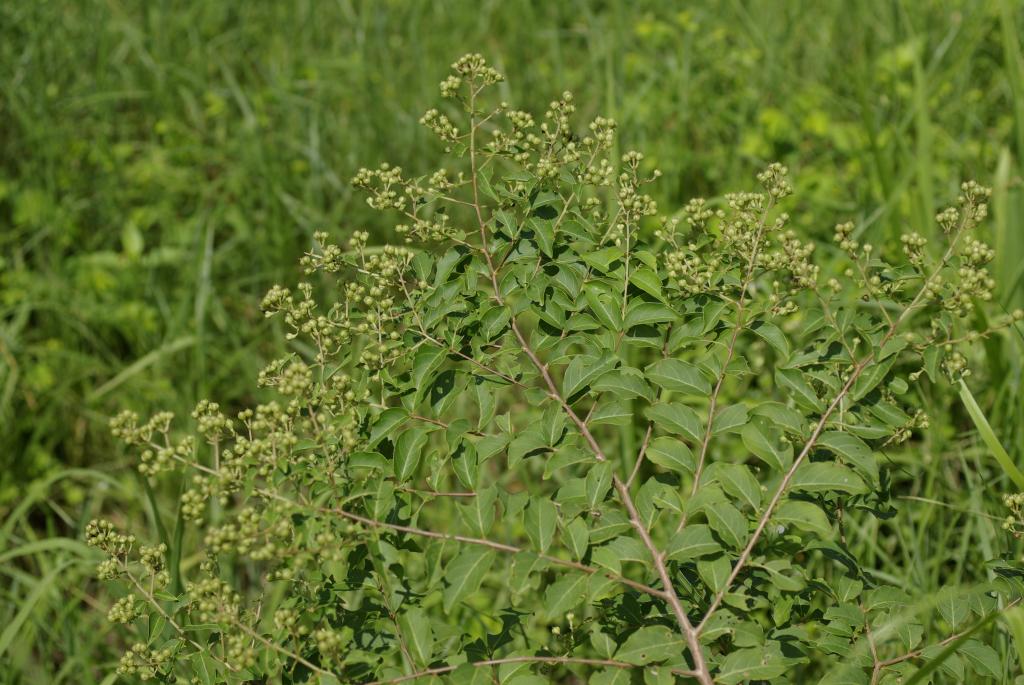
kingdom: Plantae
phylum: Tracheophyta
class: Magnoliopsida
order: Myrtales
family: Lythraceae
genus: Lagerstroemia
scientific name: Lagerstroemia subcostata
